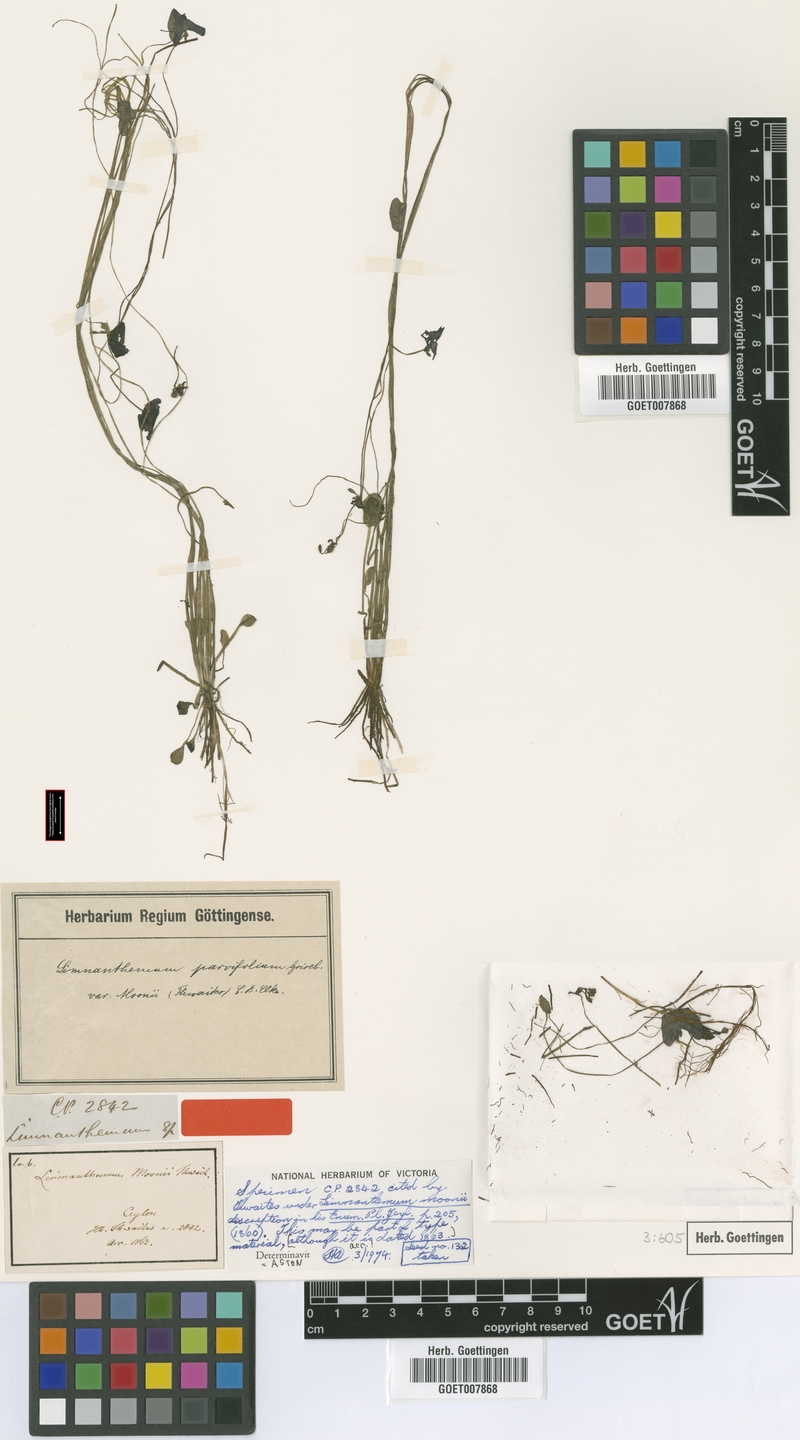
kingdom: Plantae
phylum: Tracheophyta
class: Magnoliopsida
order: Asterales
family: Menyanthaceae
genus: Nymphoides
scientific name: Nymphoides parvifolia
